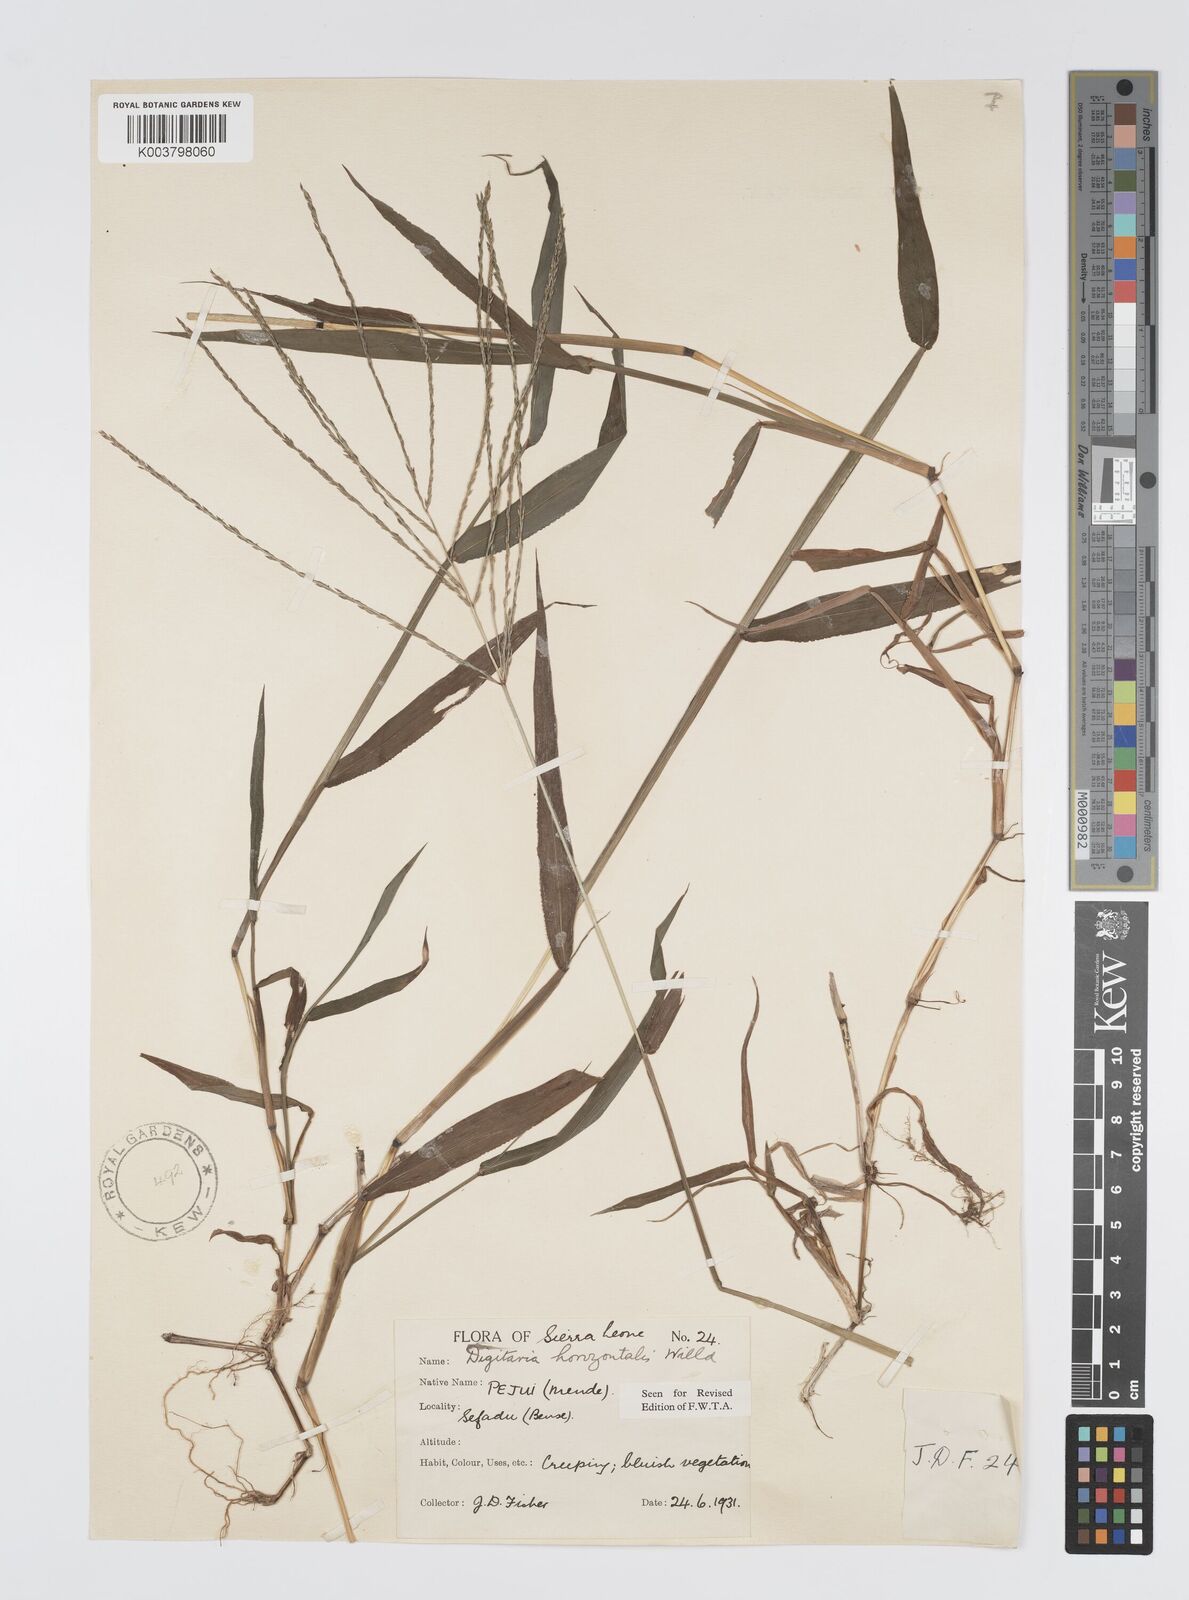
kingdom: Plantae
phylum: Tracheophyta
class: Liliopsida
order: Poales
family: Poaceae
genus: Digitaria
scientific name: Digitaria horizontalis
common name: Jamaican crabgrass
